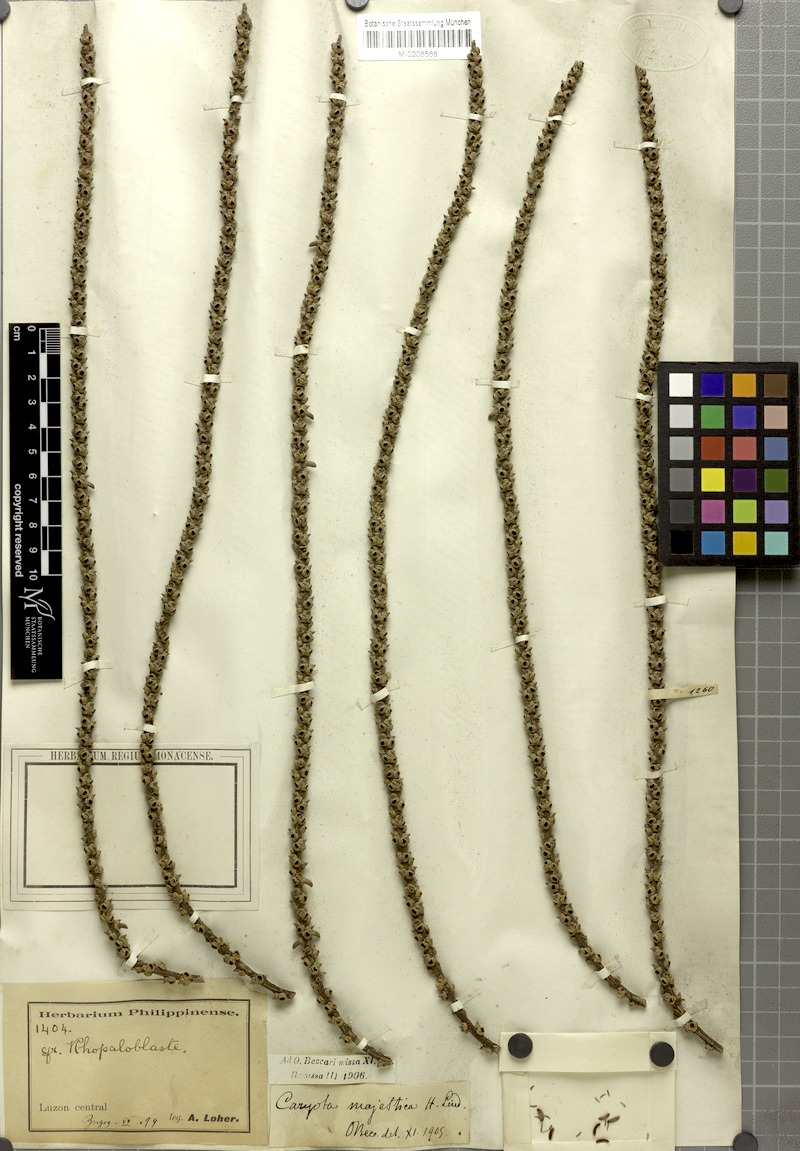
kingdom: Plantae
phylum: Tracheophyta
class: Liliopsida
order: Arecales
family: Arecaceae
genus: Caryota
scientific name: Caryota maxima
